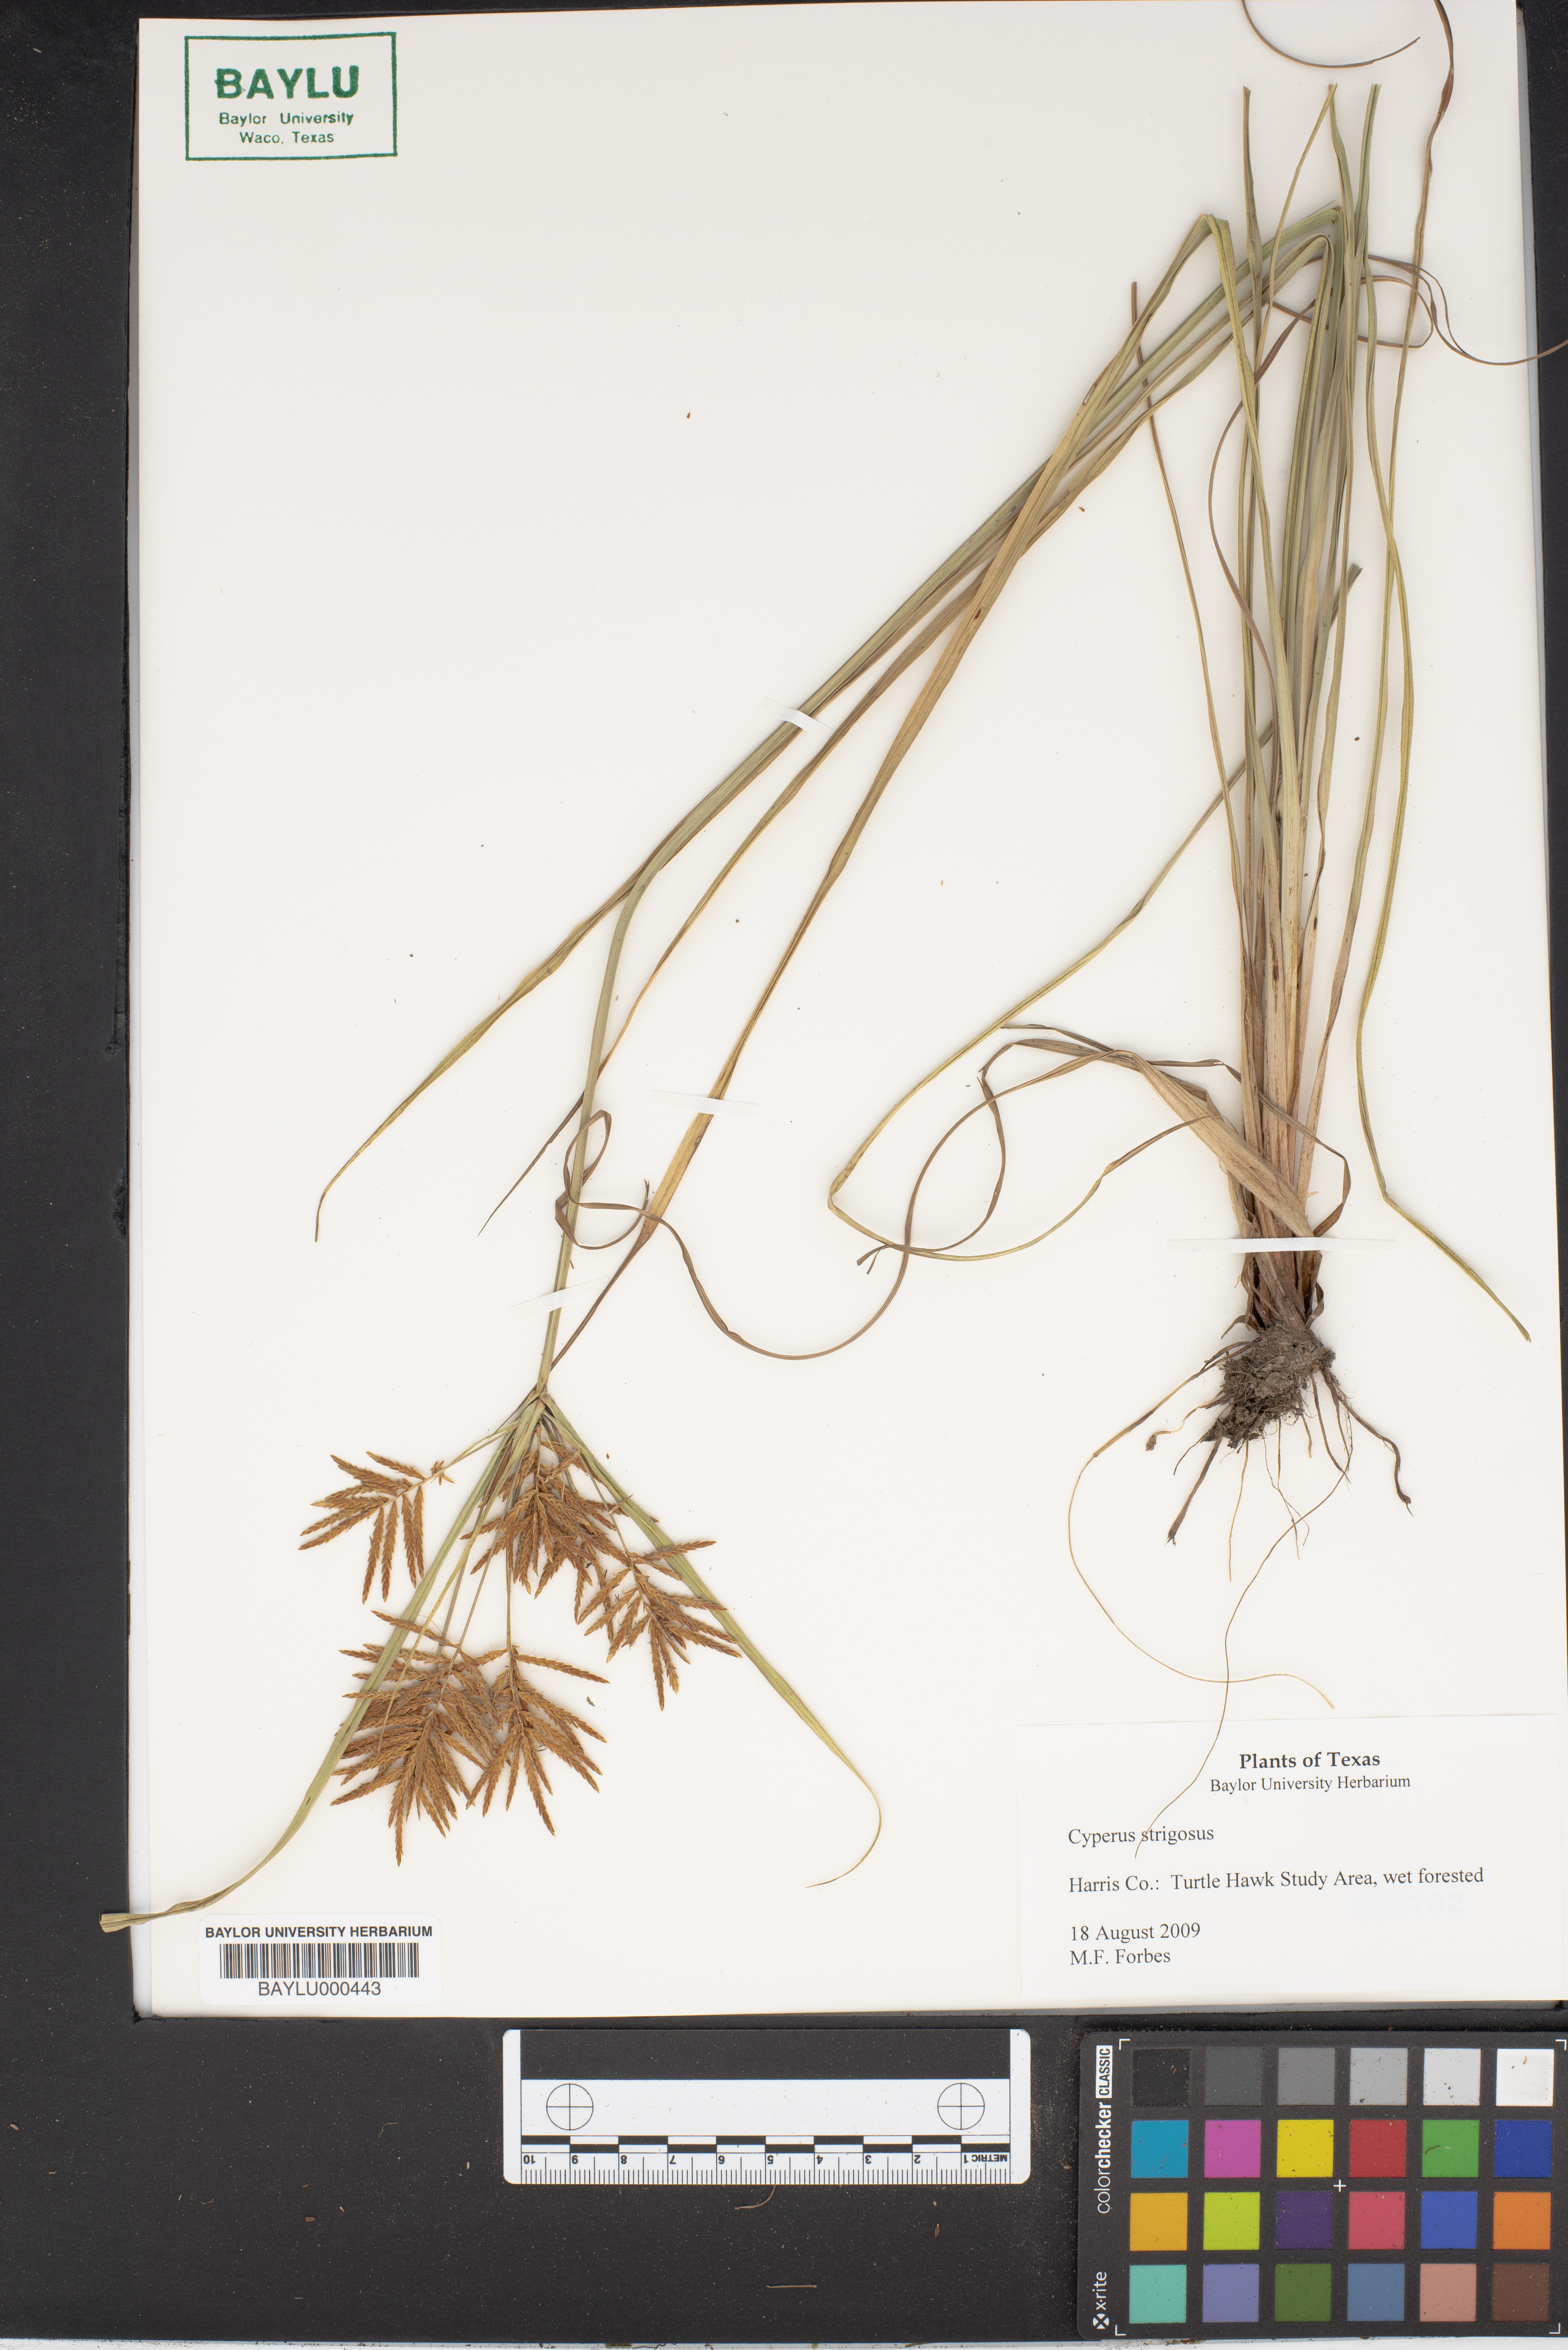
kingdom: Plantae
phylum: Tracheophyta
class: Liliopsida
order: Poales
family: Cyperaceae
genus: Cyperus
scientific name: Cyperus strigosus
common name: False nutsedge
